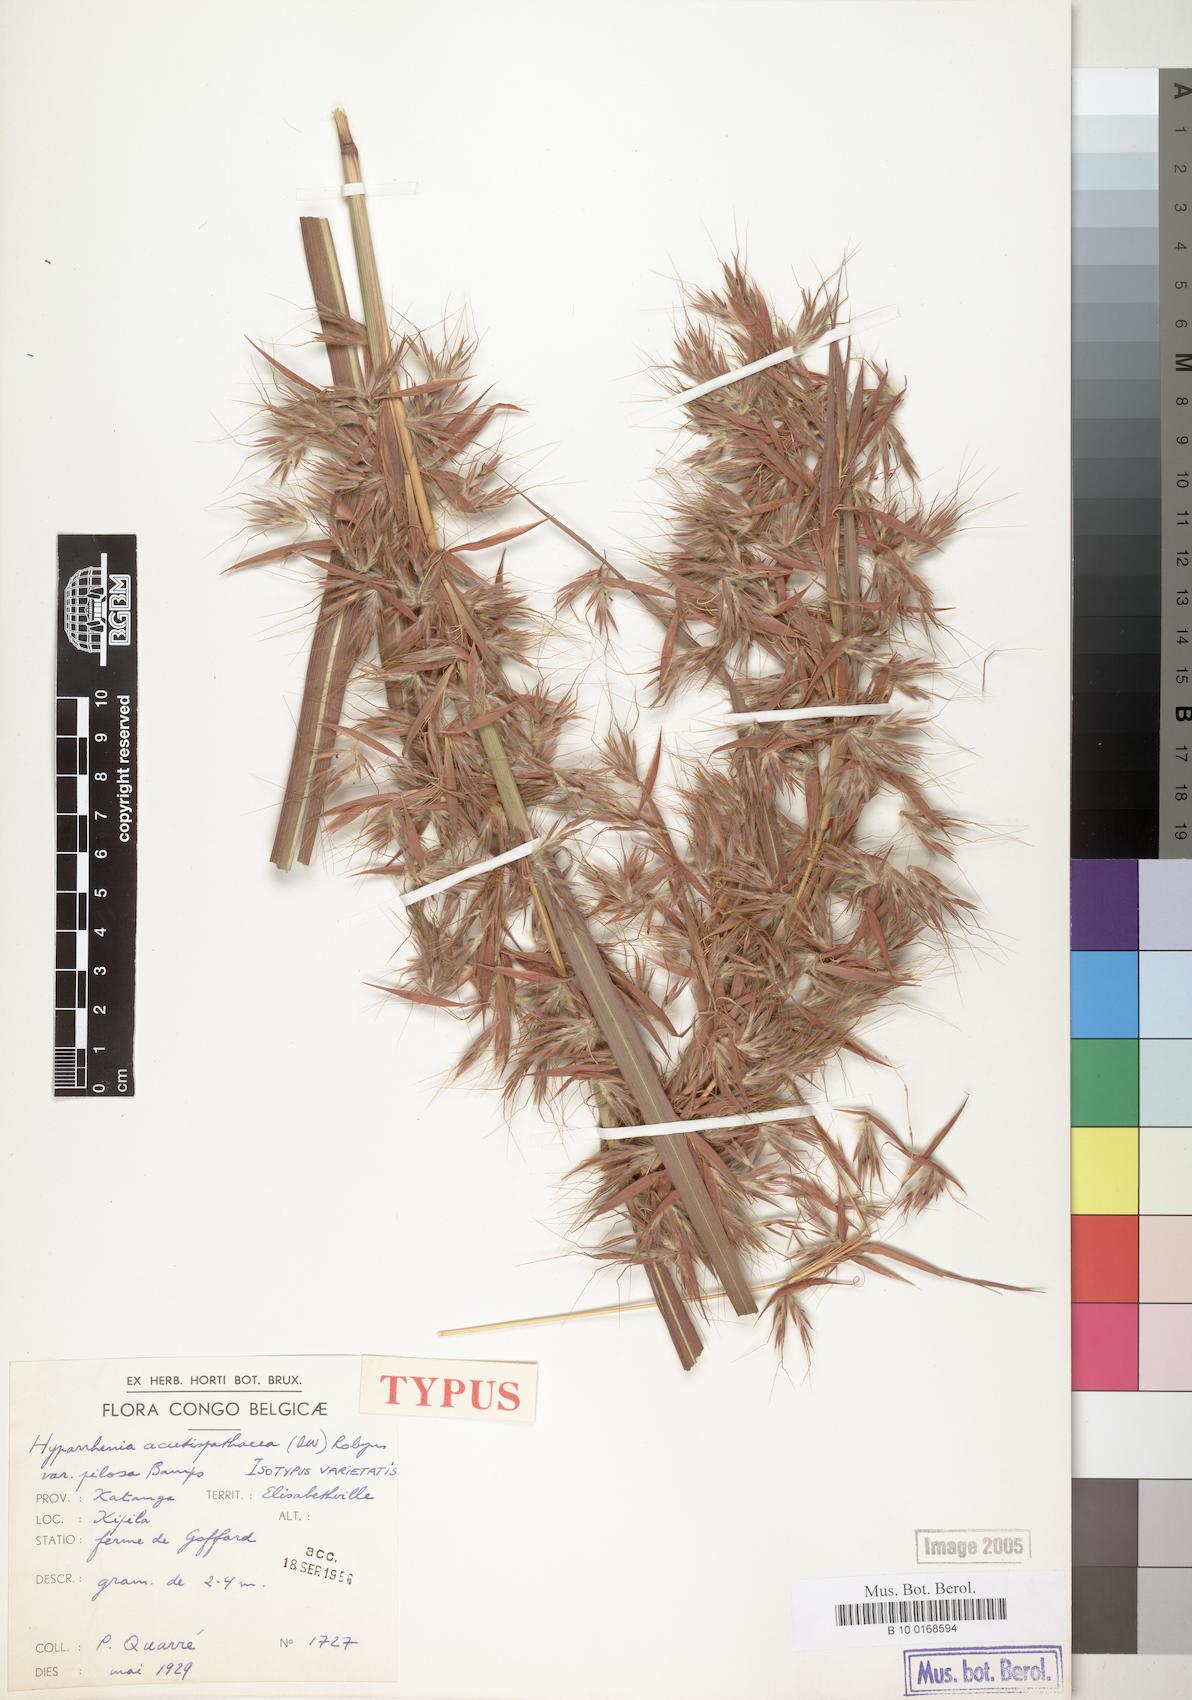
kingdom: Plantae
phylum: Tracheophyta
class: Liliopsida
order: Poales
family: Poaceae
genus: Hyparrhenia
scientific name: Hyparrhenia variabilis
